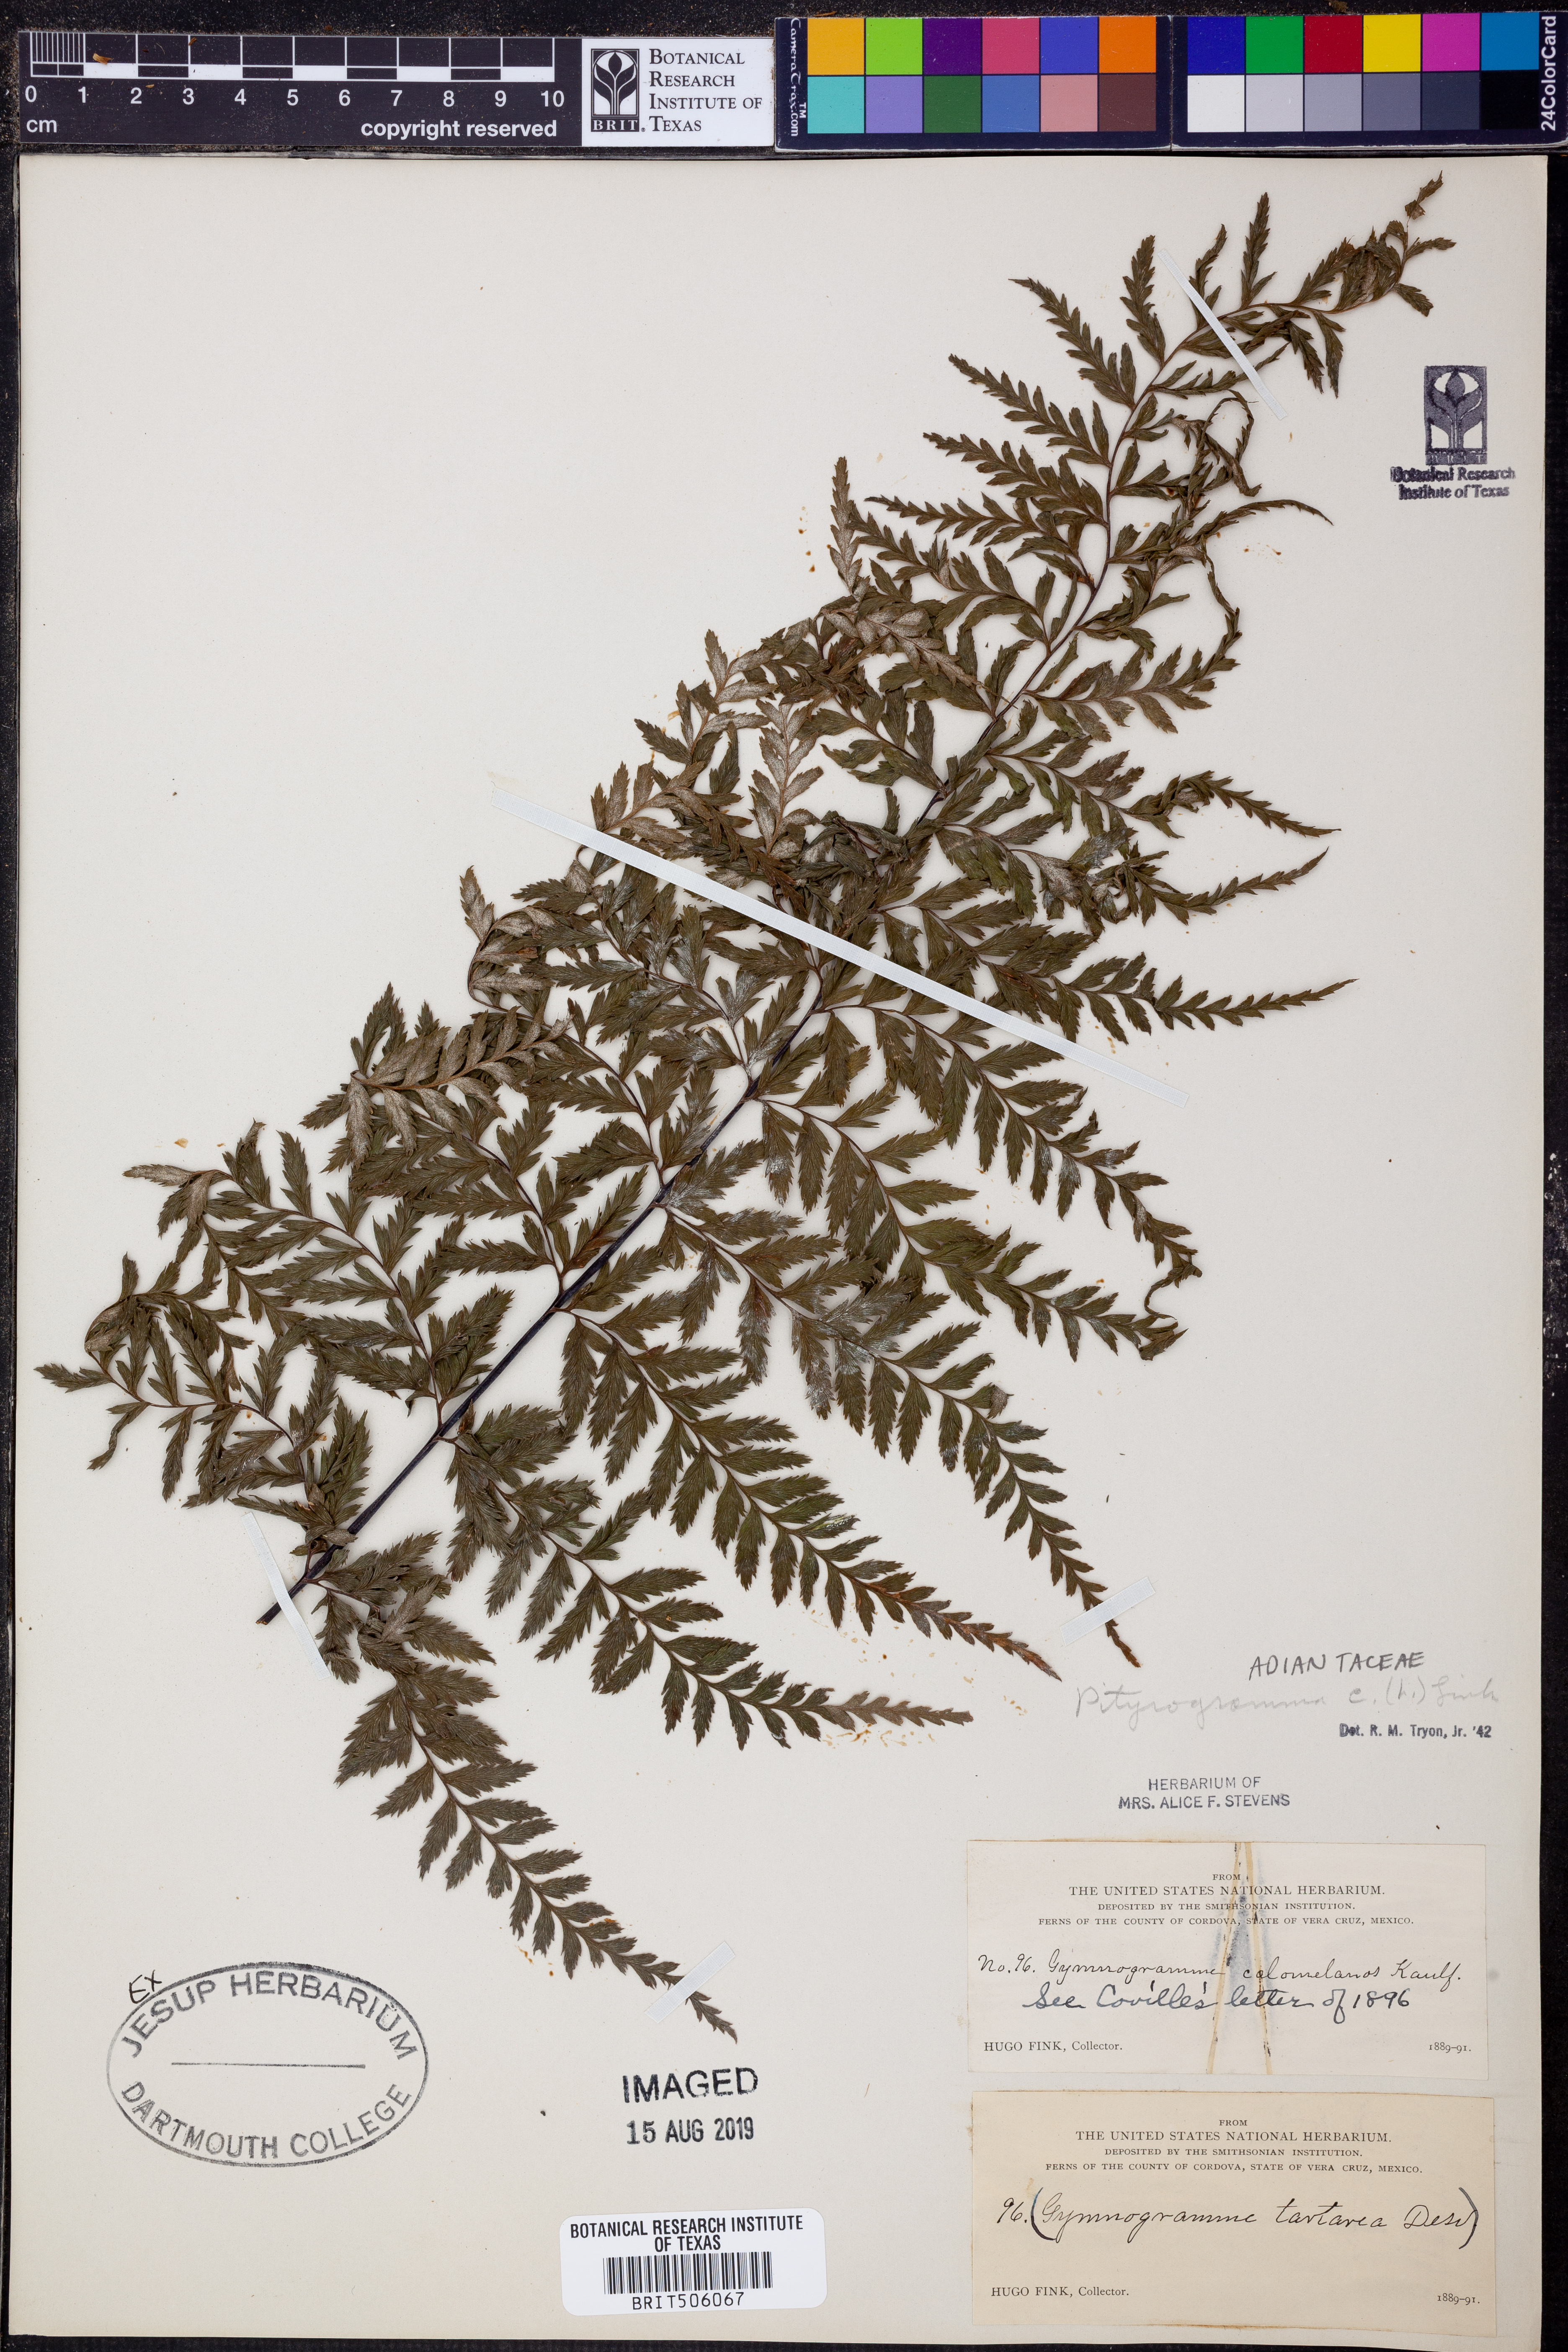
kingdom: Plantae
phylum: Tracheophyta
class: Polypodiopsida
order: Polypodiales
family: Pteridaceae
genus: Pityrogramma
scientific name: Pityrogramma calomelanos
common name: Dixie silverback fern
